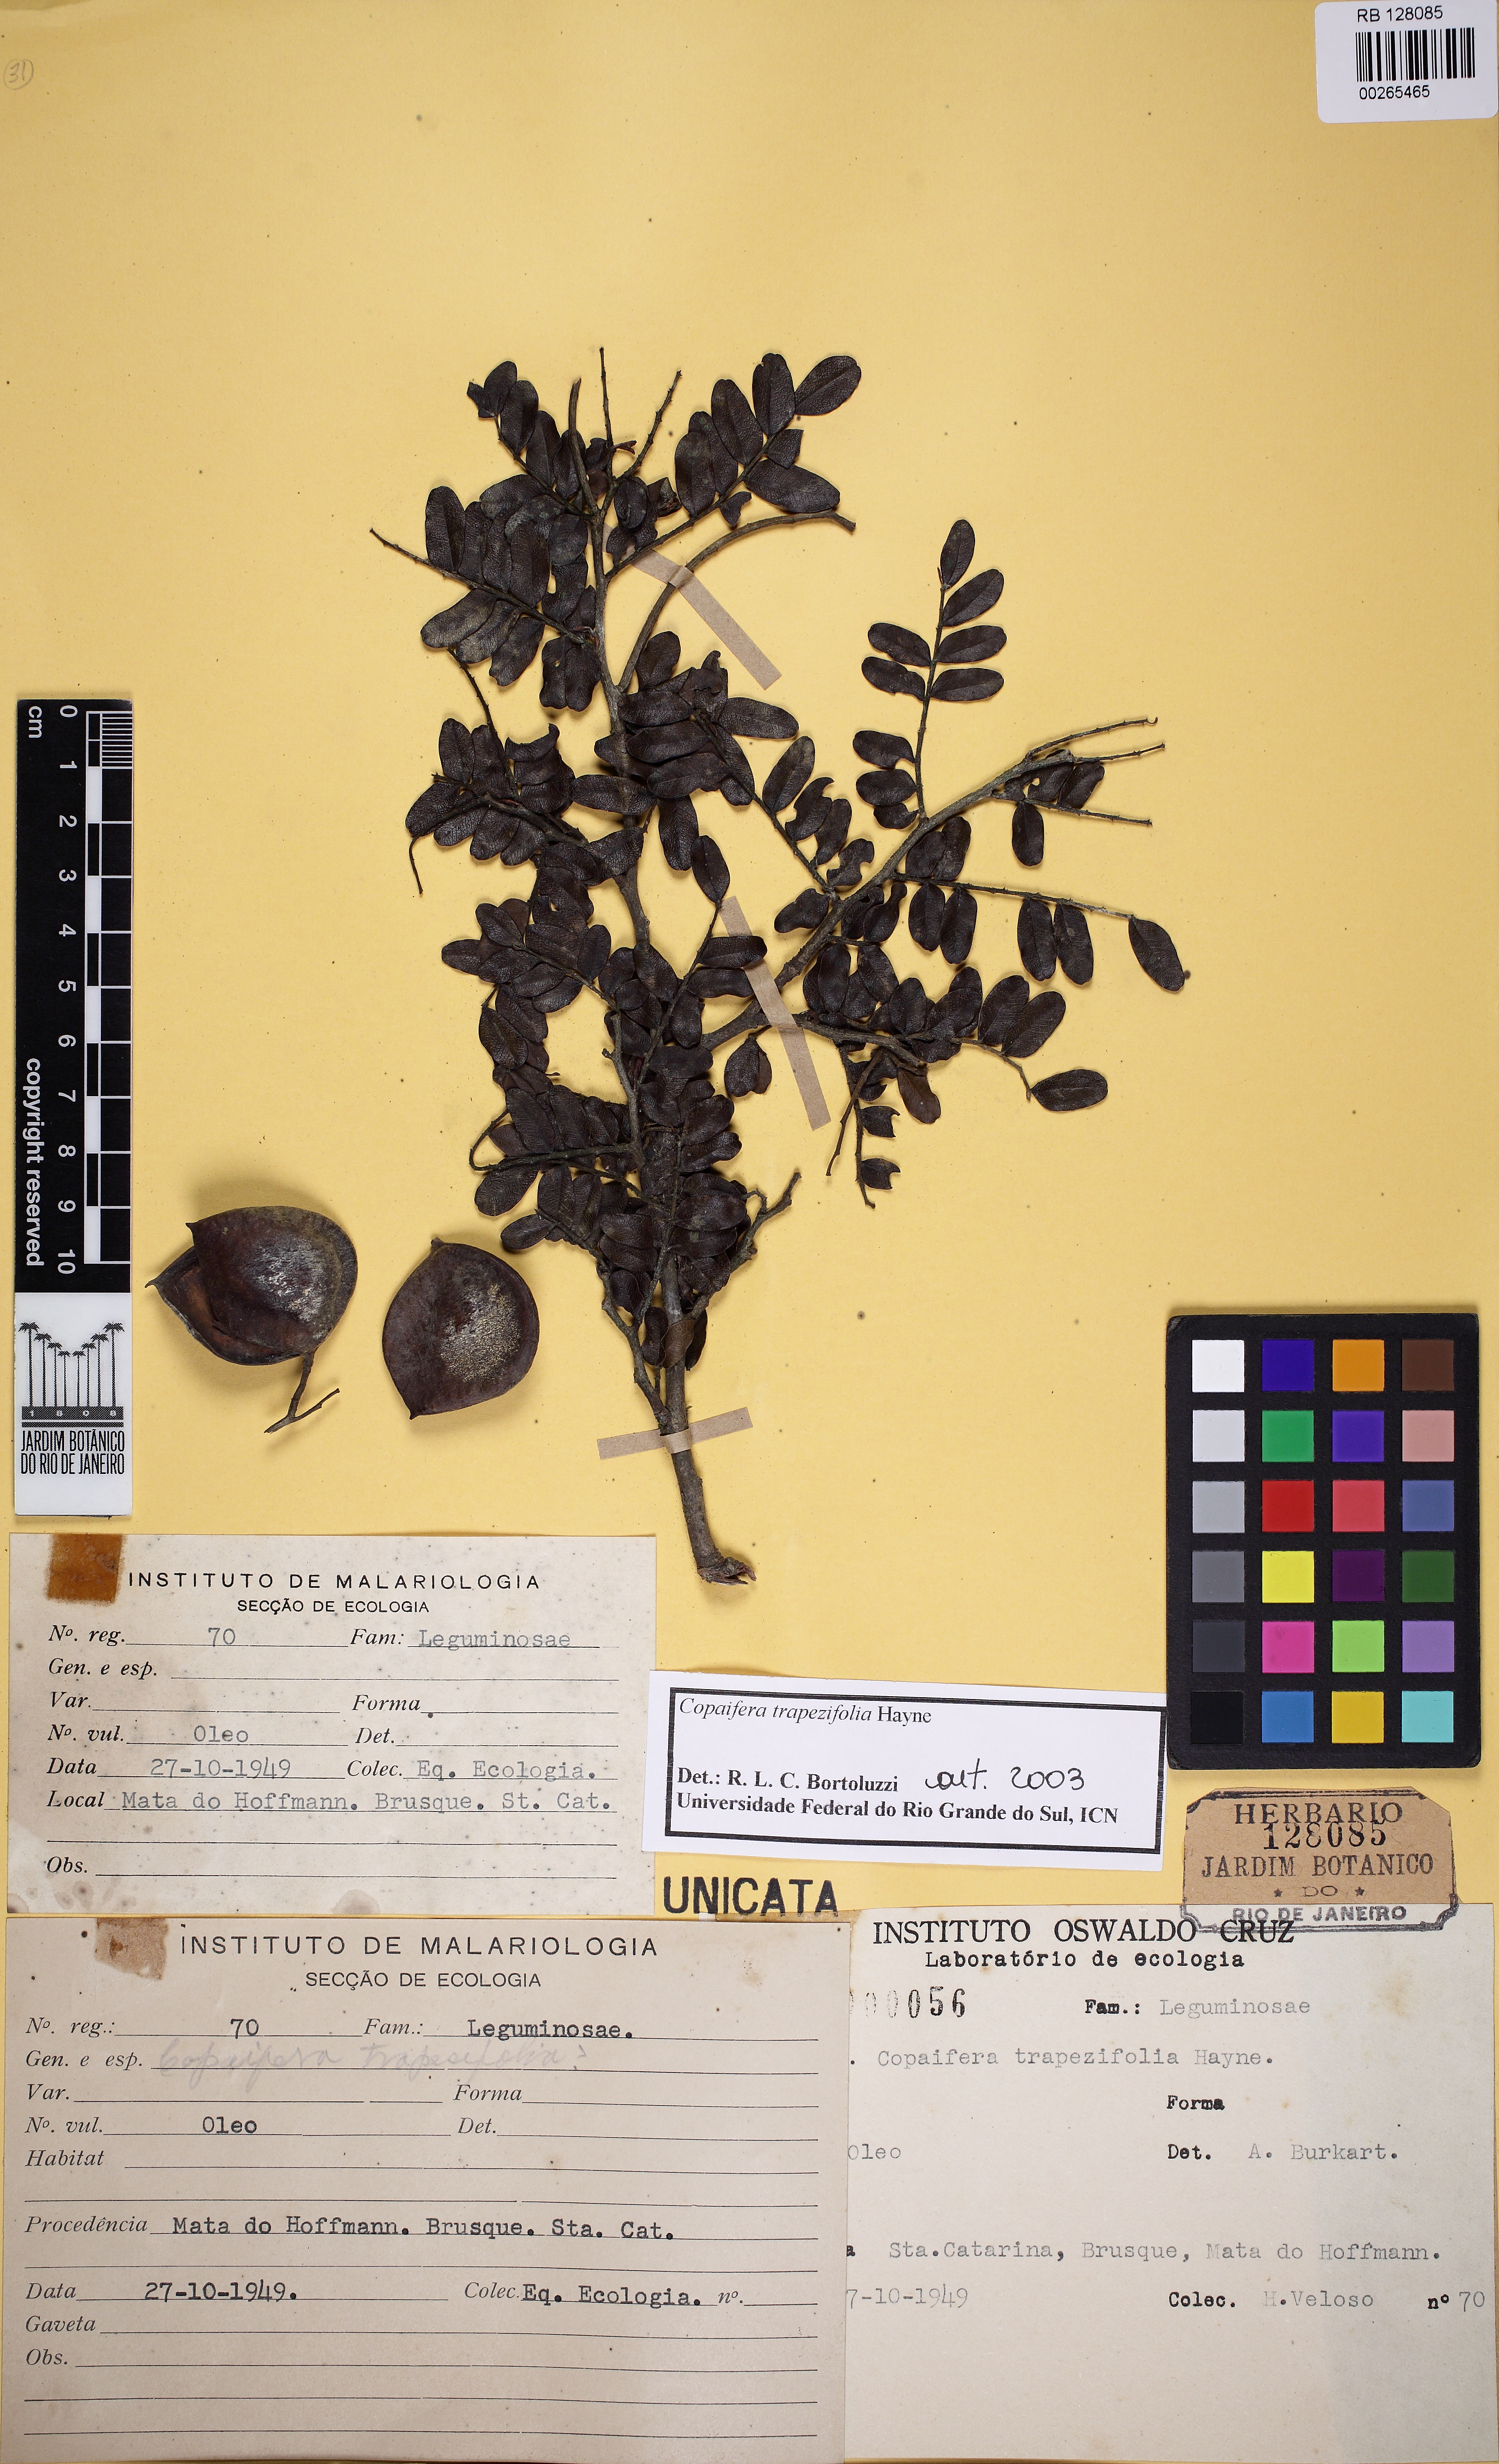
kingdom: Plantae
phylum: Tracheophyta
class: Magnoliopsida
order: Fabales
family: Fabaceae
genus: Copaifera
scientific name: Copaifera trapezifolia
